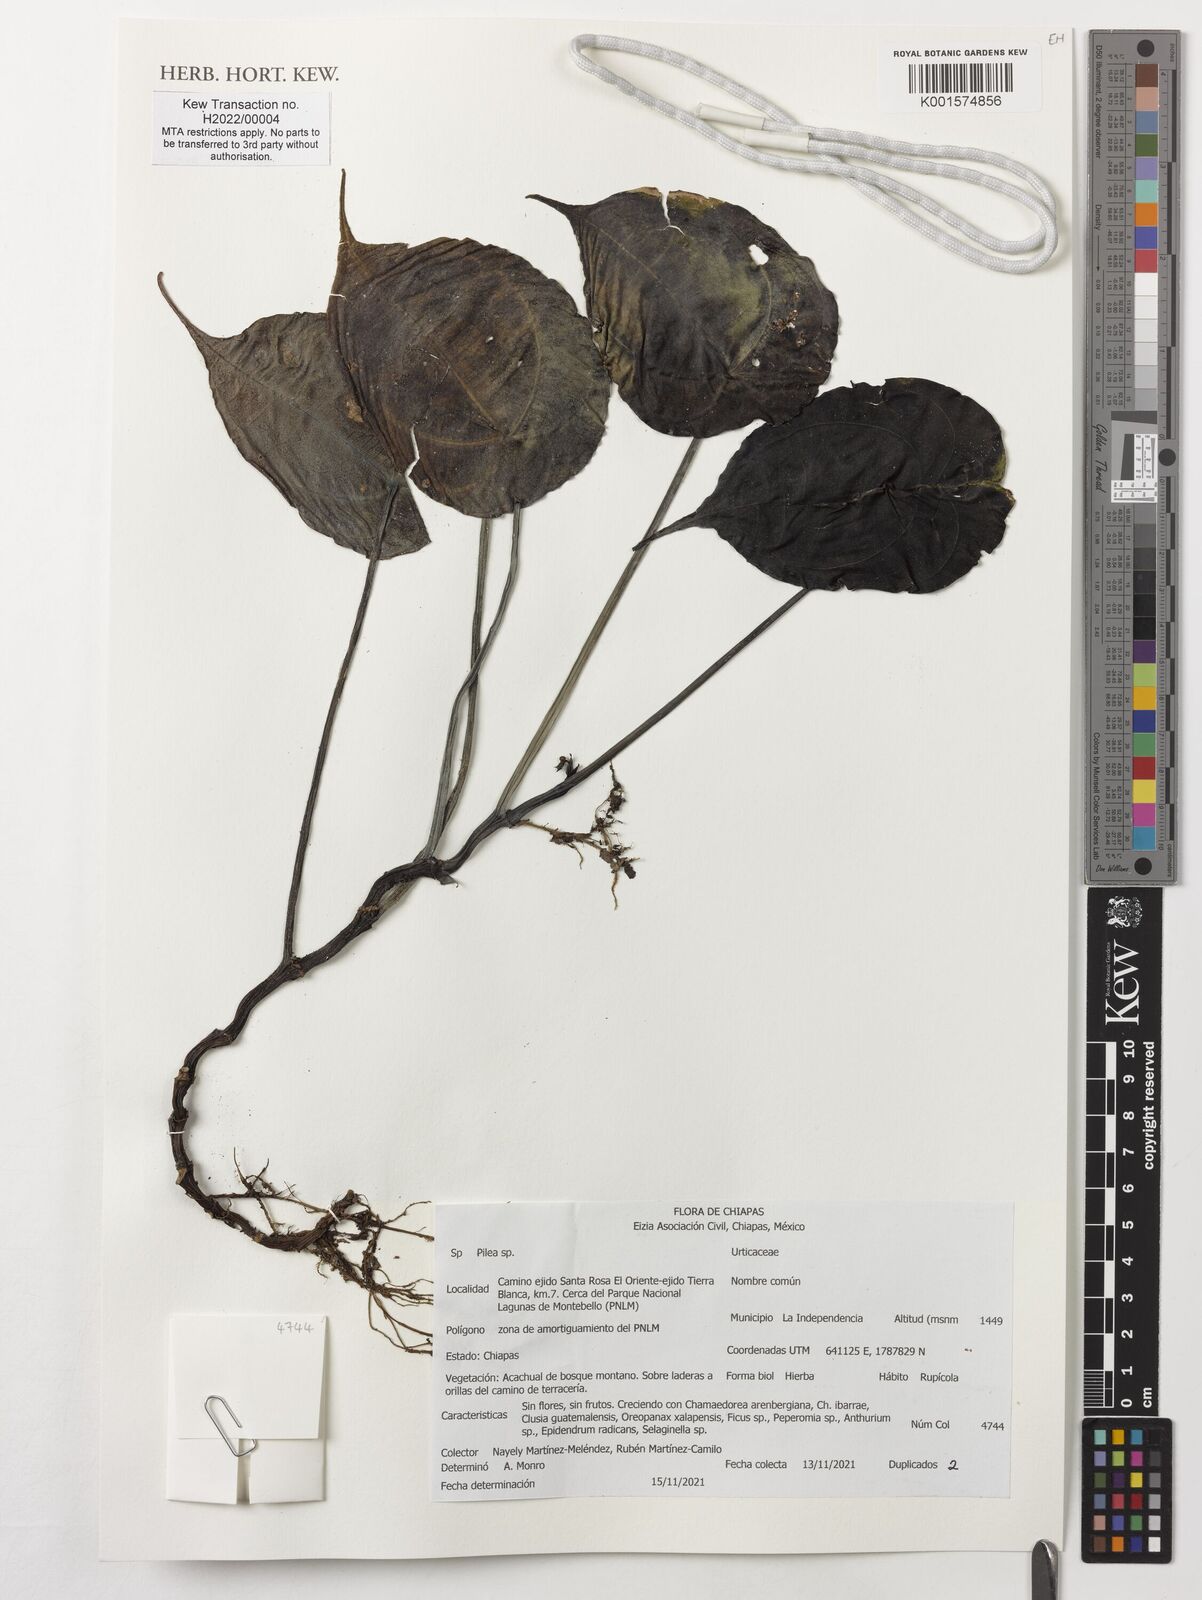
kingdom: Plantae
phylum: Tracheophyta
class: Magnoliopsida
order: Rosales
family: Urticaceae
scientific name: Urticaceae
